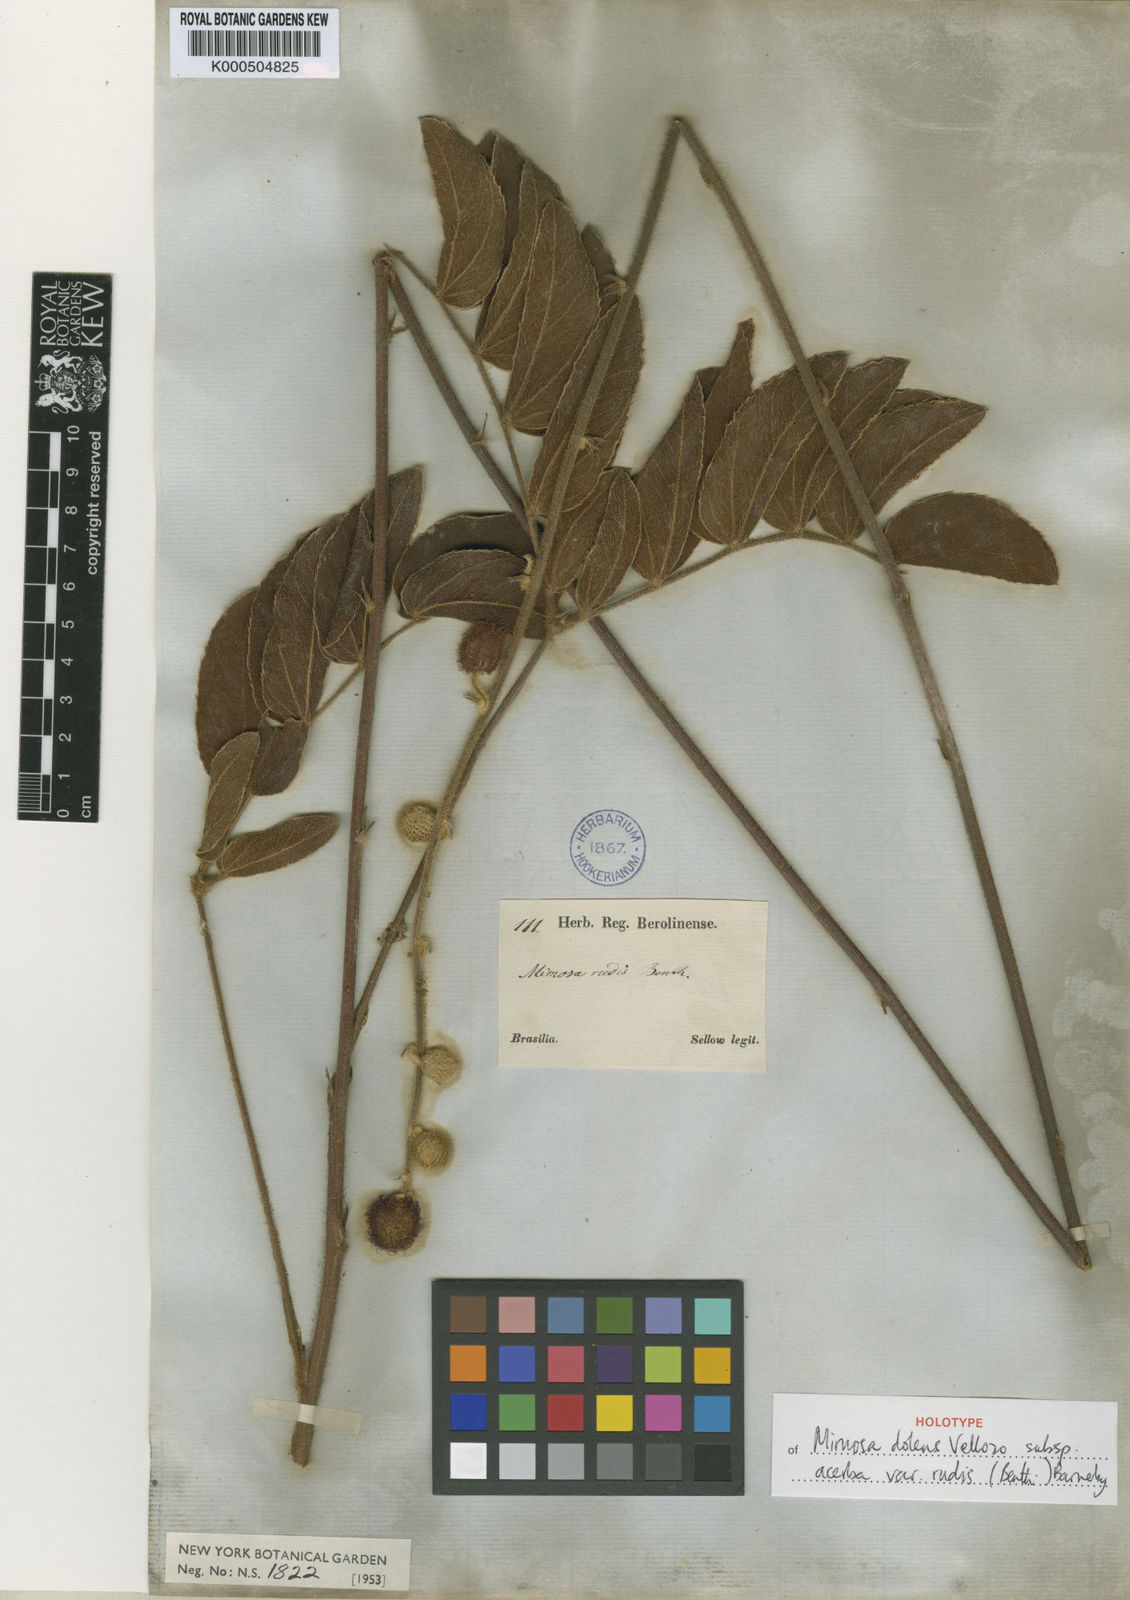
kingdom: Plantae
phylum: Tracheophyta
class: Magnoliopsida
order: Fabales
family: Fabaceae
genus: Mimosa
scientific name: Mimosa dolens
